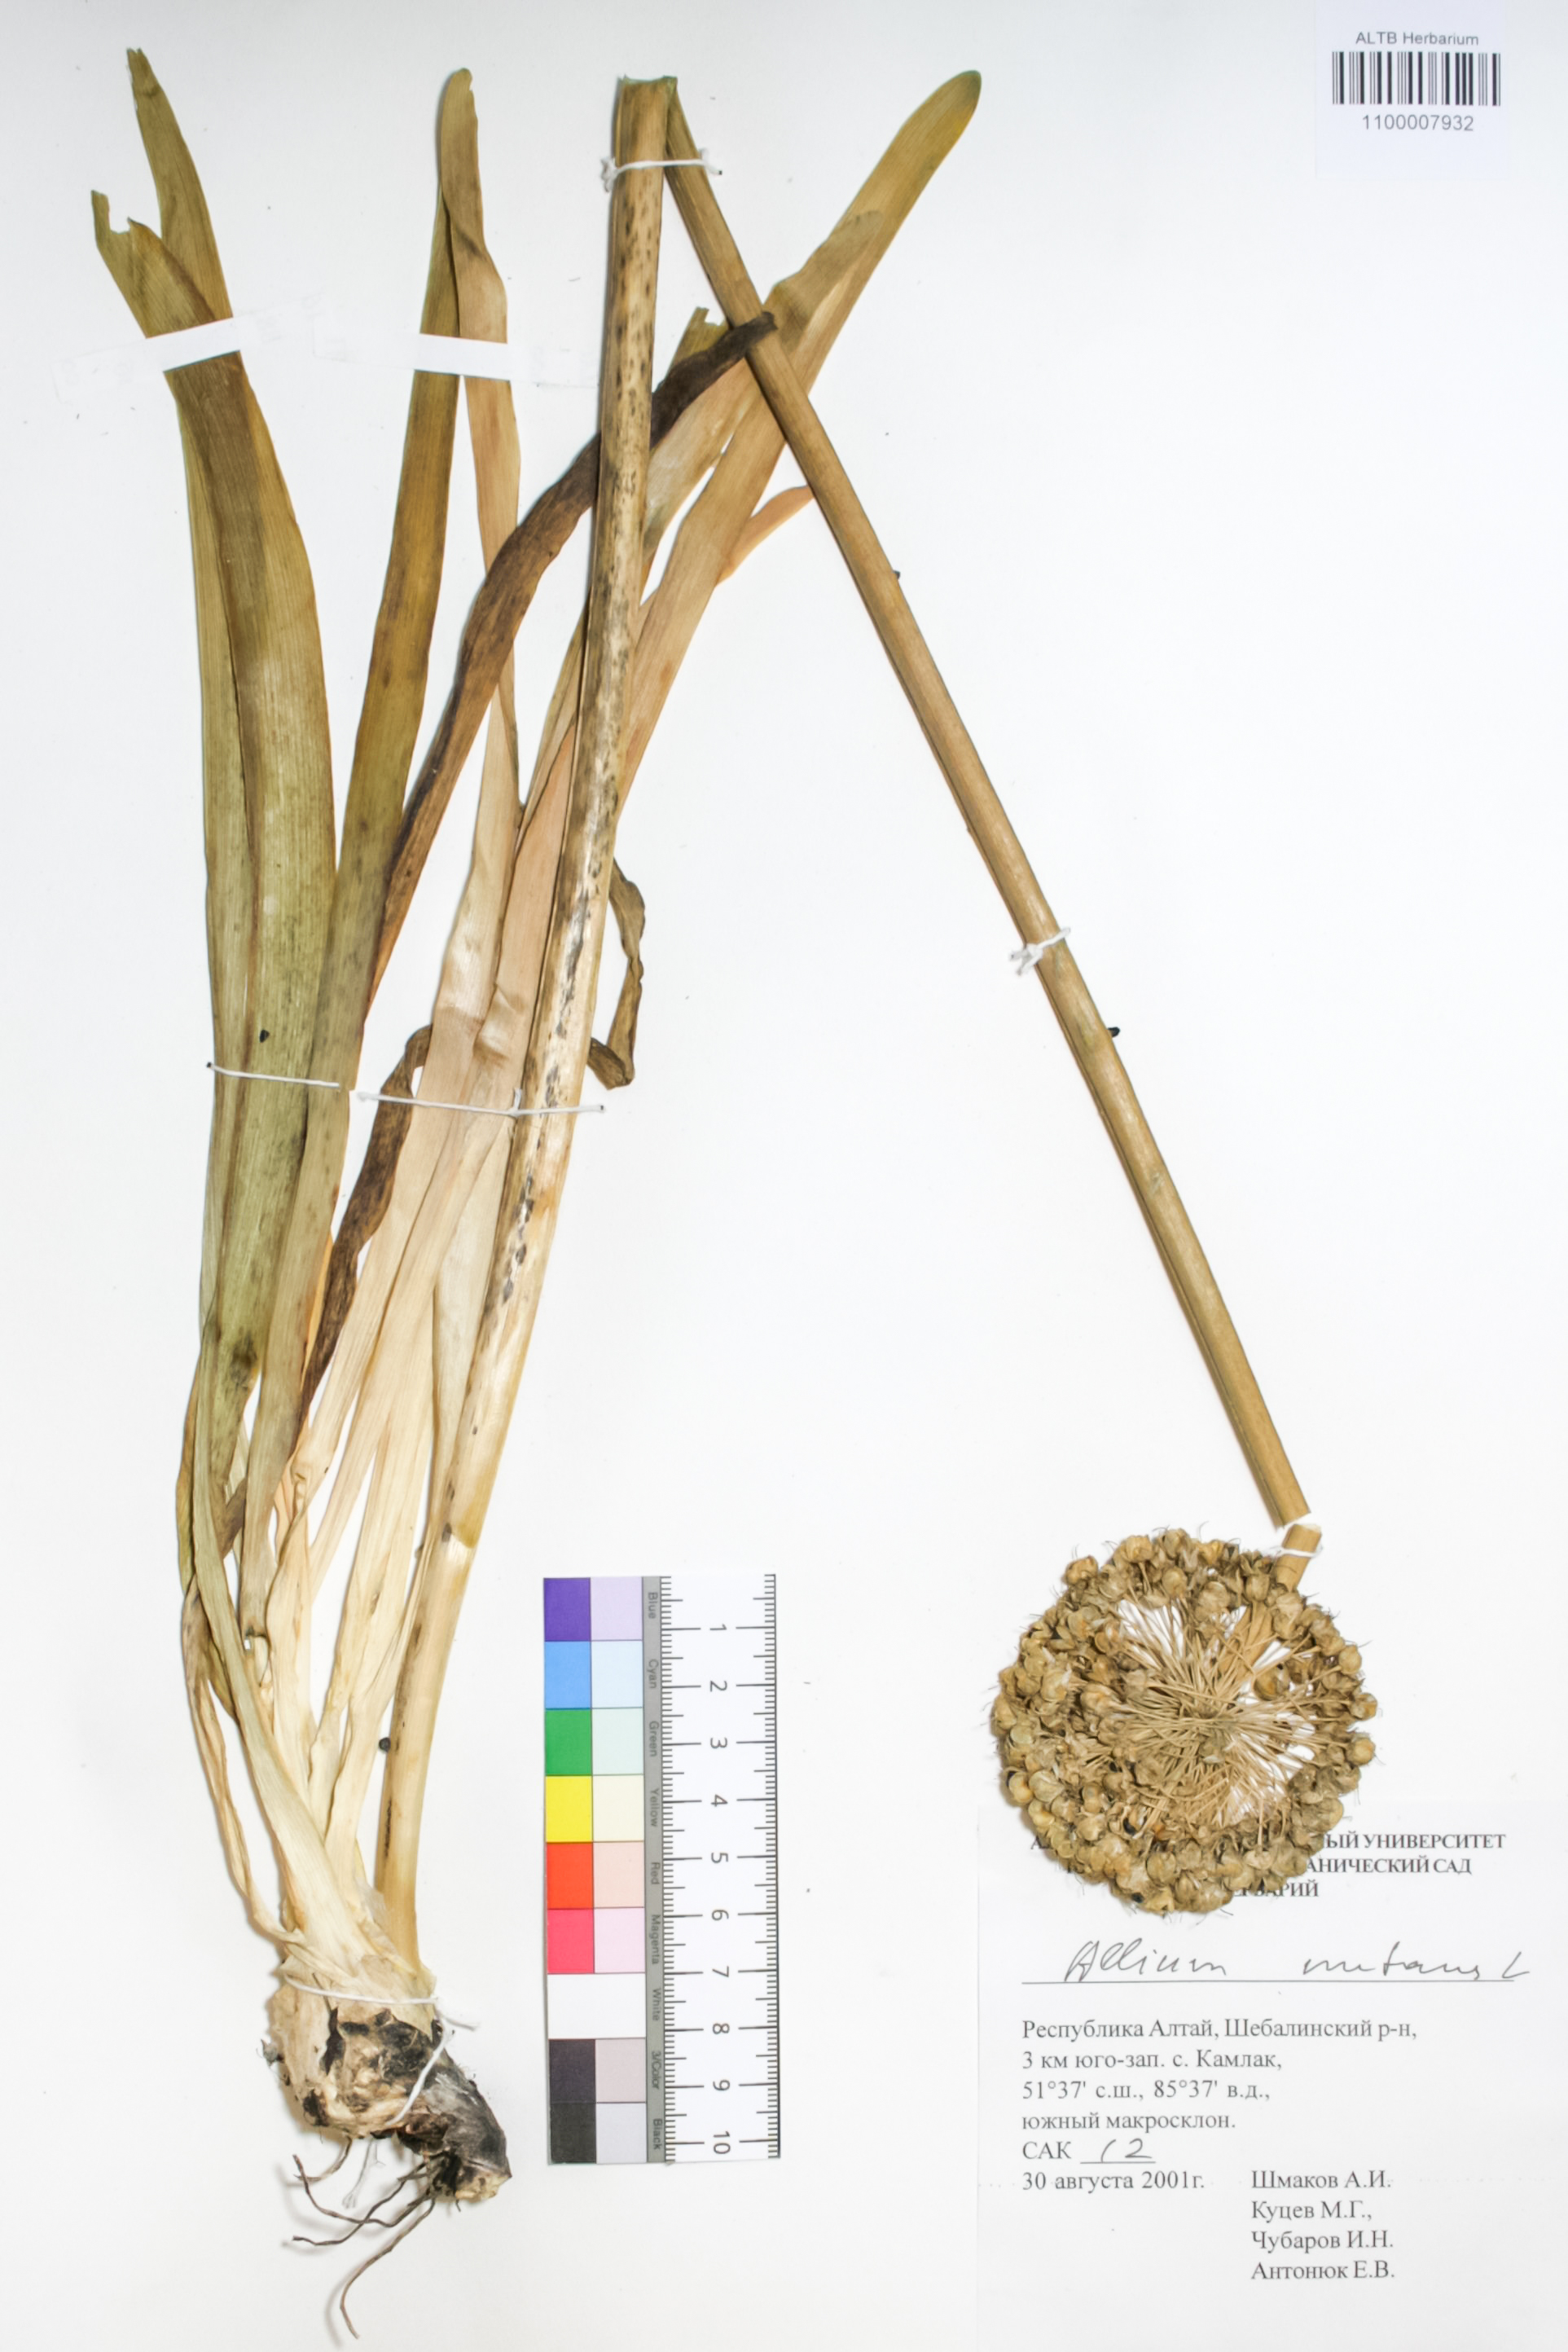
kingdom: Plantae
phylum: Tracheophyta
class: Liliopsida
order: Asparagales
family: Amaryllidaceae
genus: Allium
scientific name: Allium nutans
